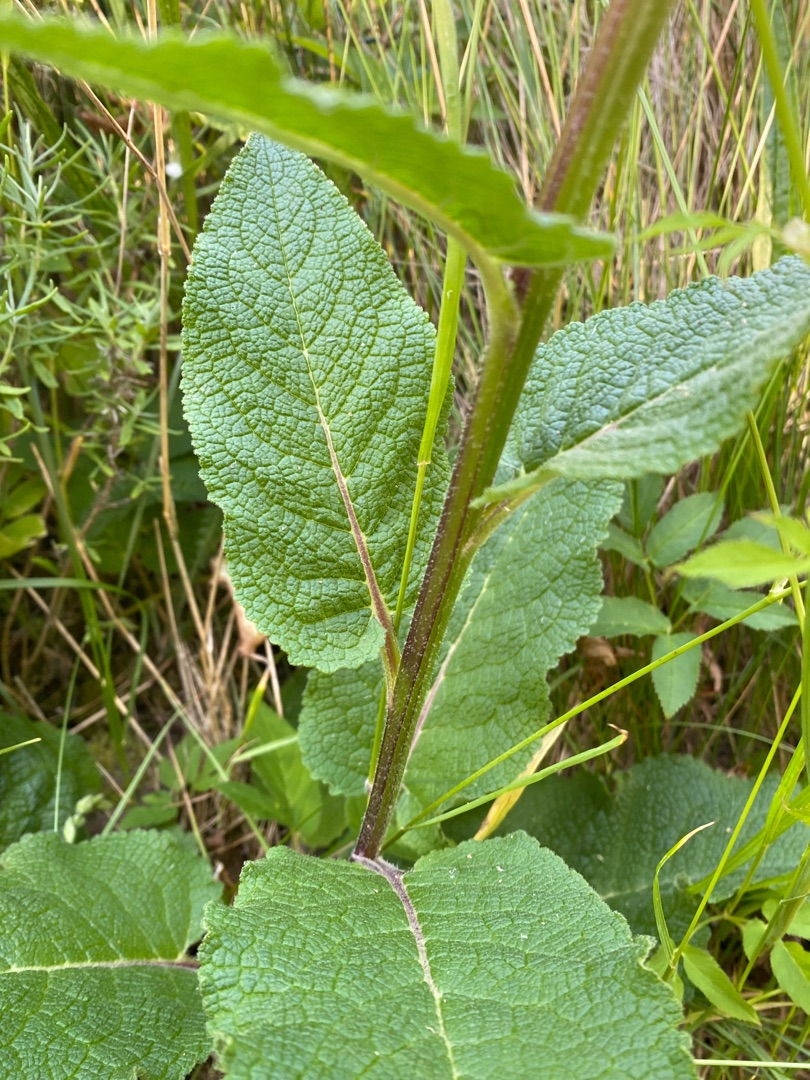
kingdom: Plantae
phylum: Tracheophyta
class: Magnoliopsida
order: Lamiales
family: Scrophulariaceae
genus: Verbascum
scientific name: Verbascum nigrum
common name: Mørk kongelys
